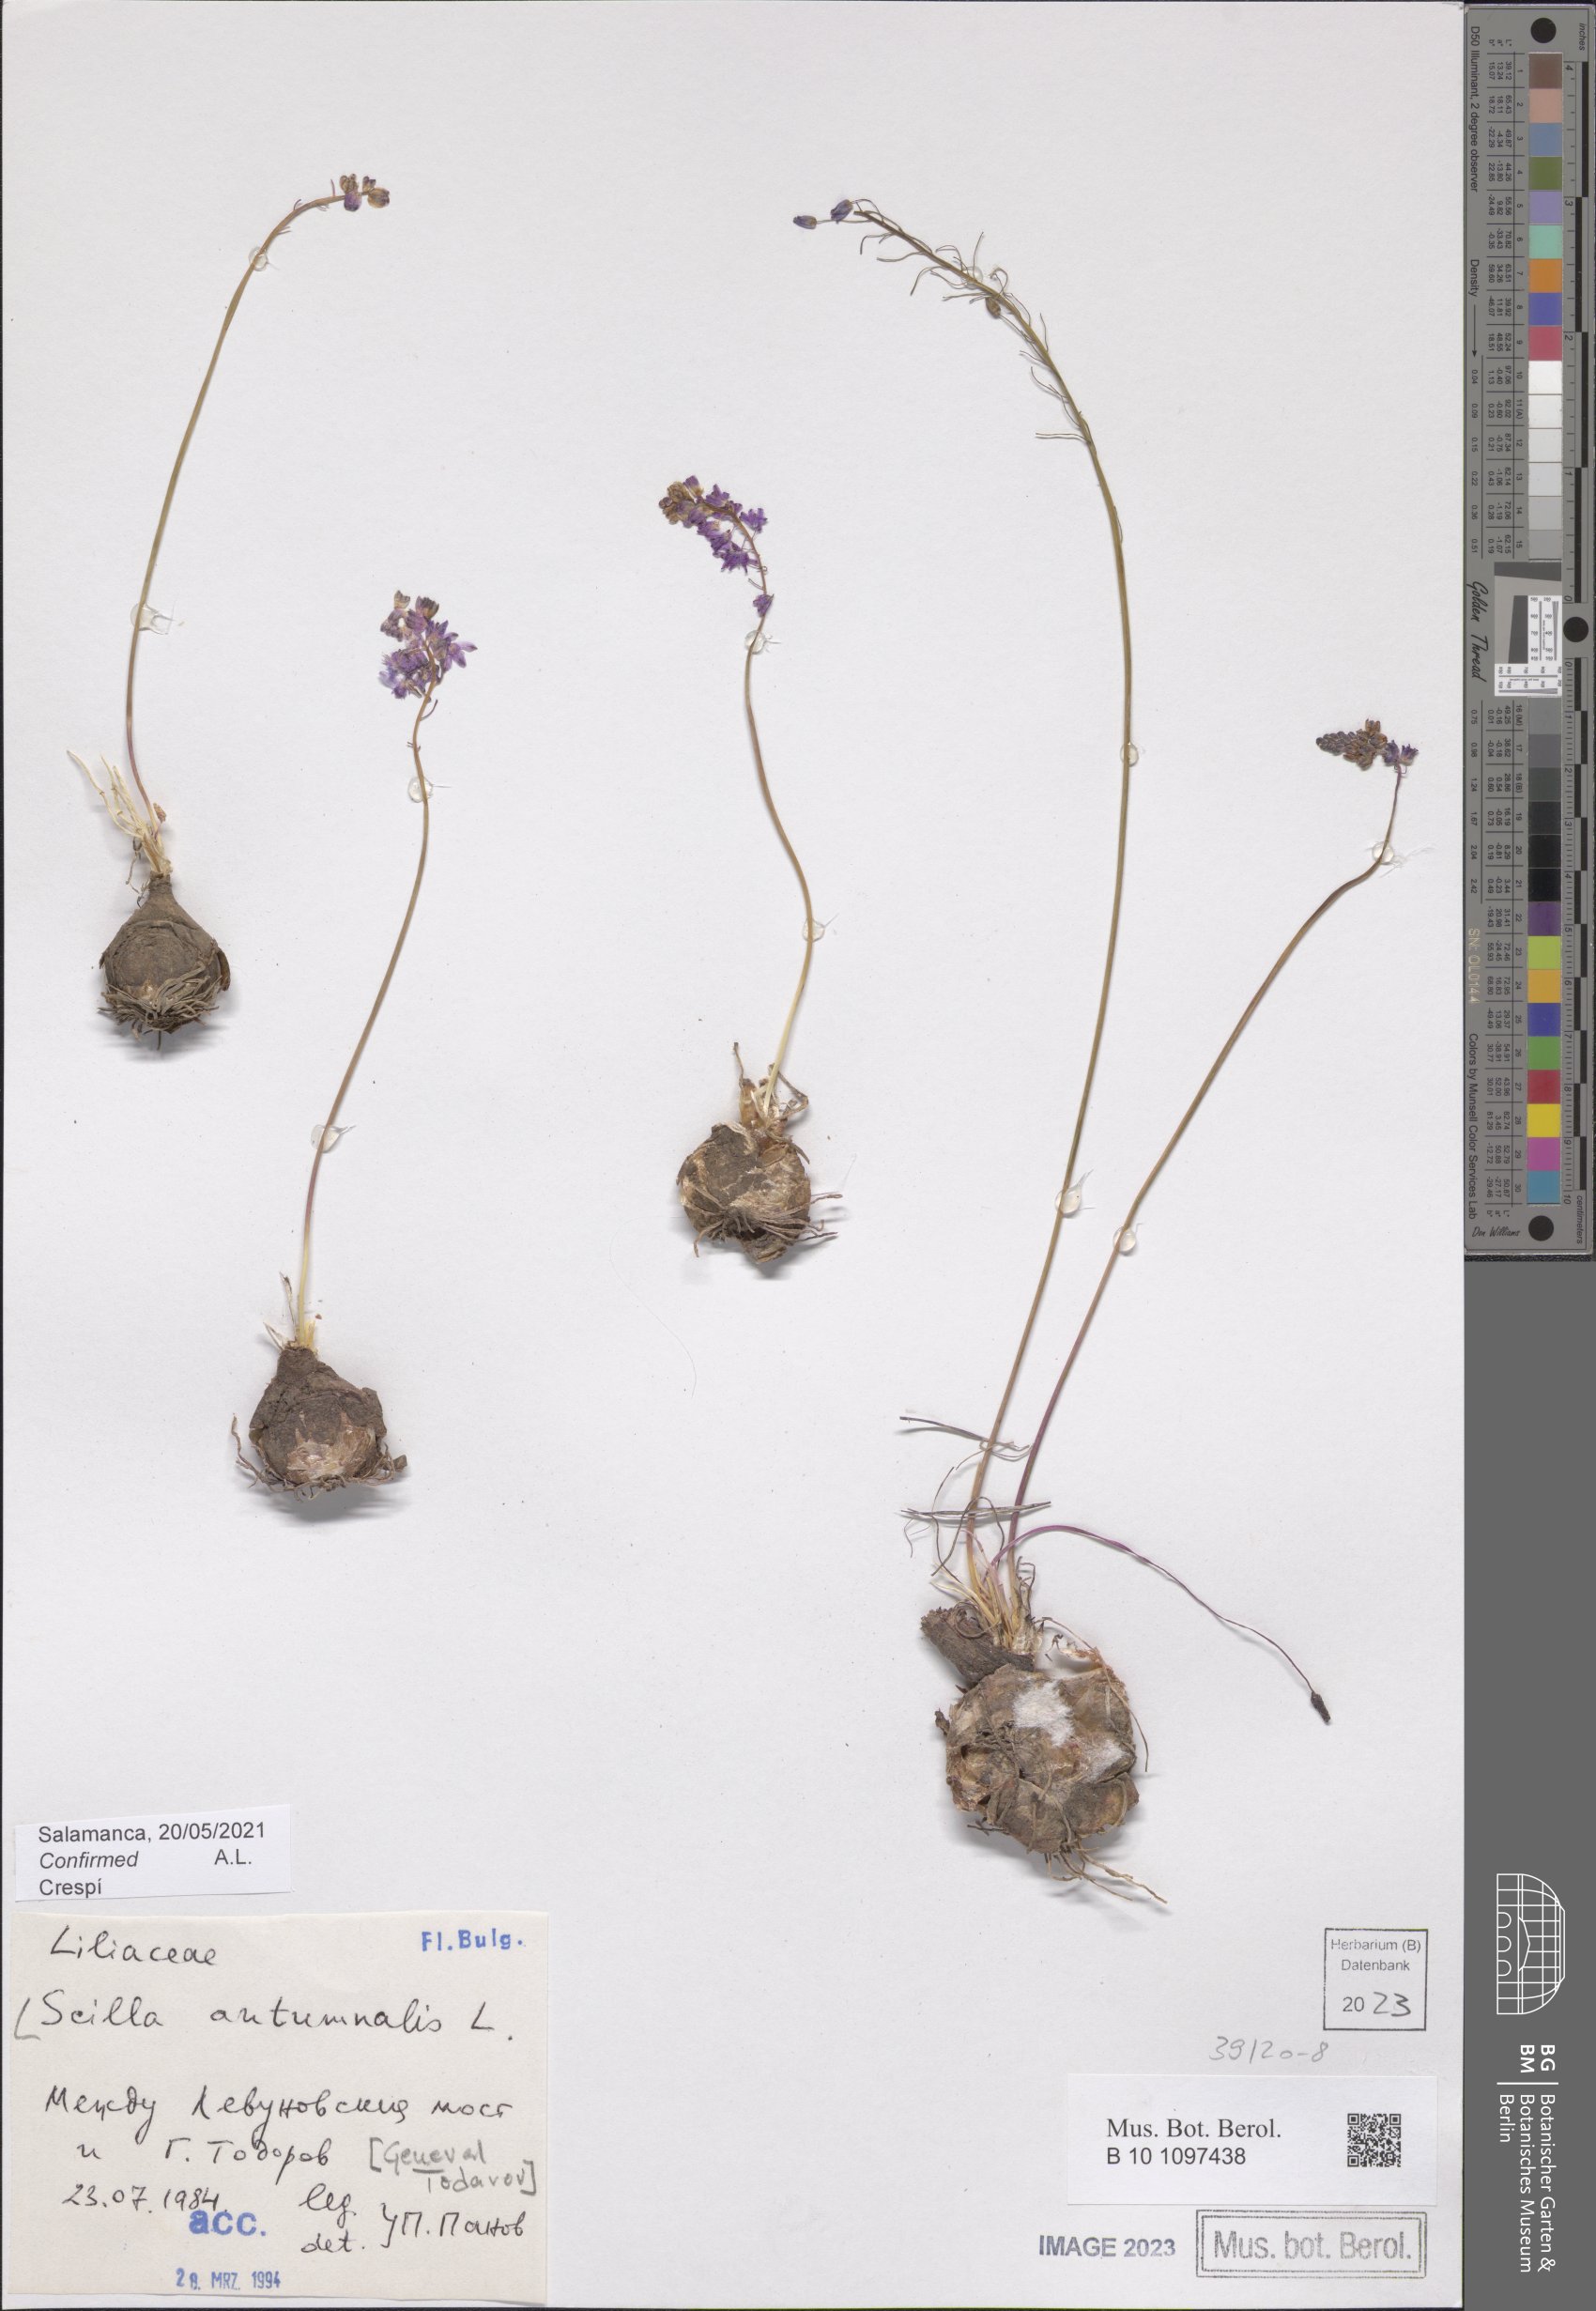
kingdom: Plantae
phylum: Tracheophyta
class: Liliopsida
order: Asparagales
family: Asparagaceae
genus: Prospero
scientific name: Prospero autumnale
